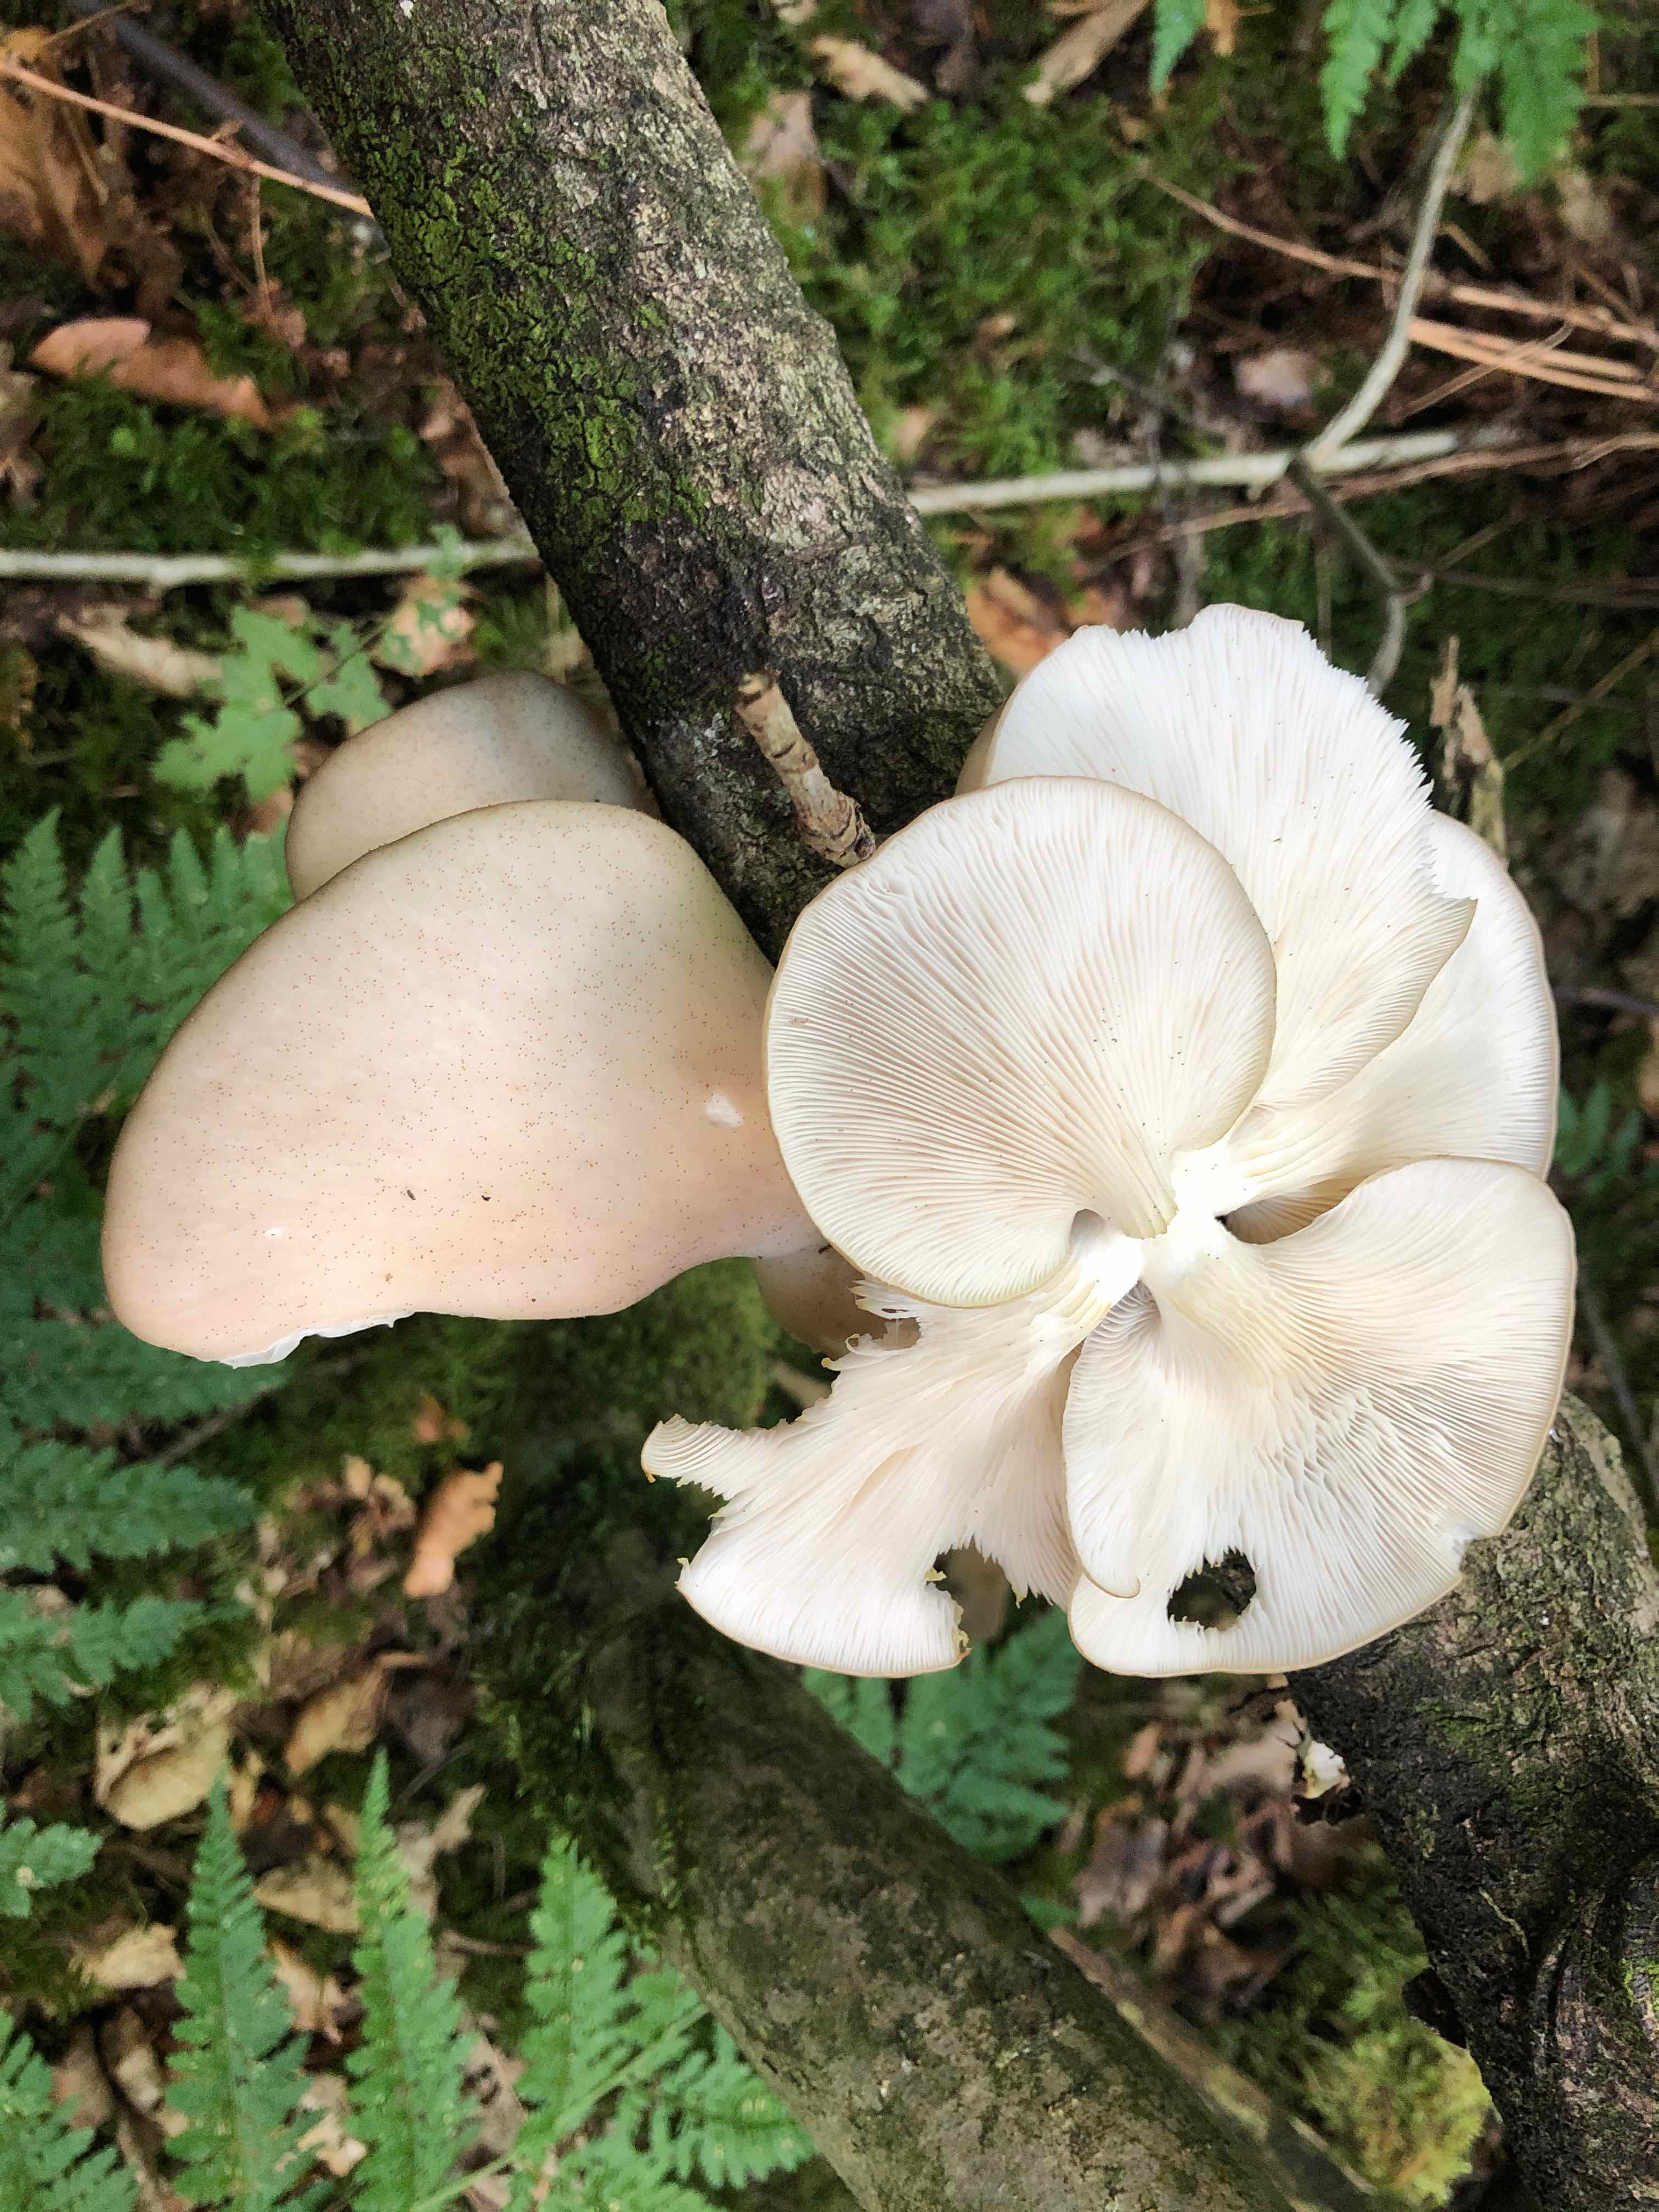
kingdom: Fungi
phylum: Basidiomycota
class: Agaricomycetes
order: Agaricales
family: Pleurotaceae
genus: Pleurotus
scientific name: Pleurotus pulmonarius
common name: sommer-østershat
